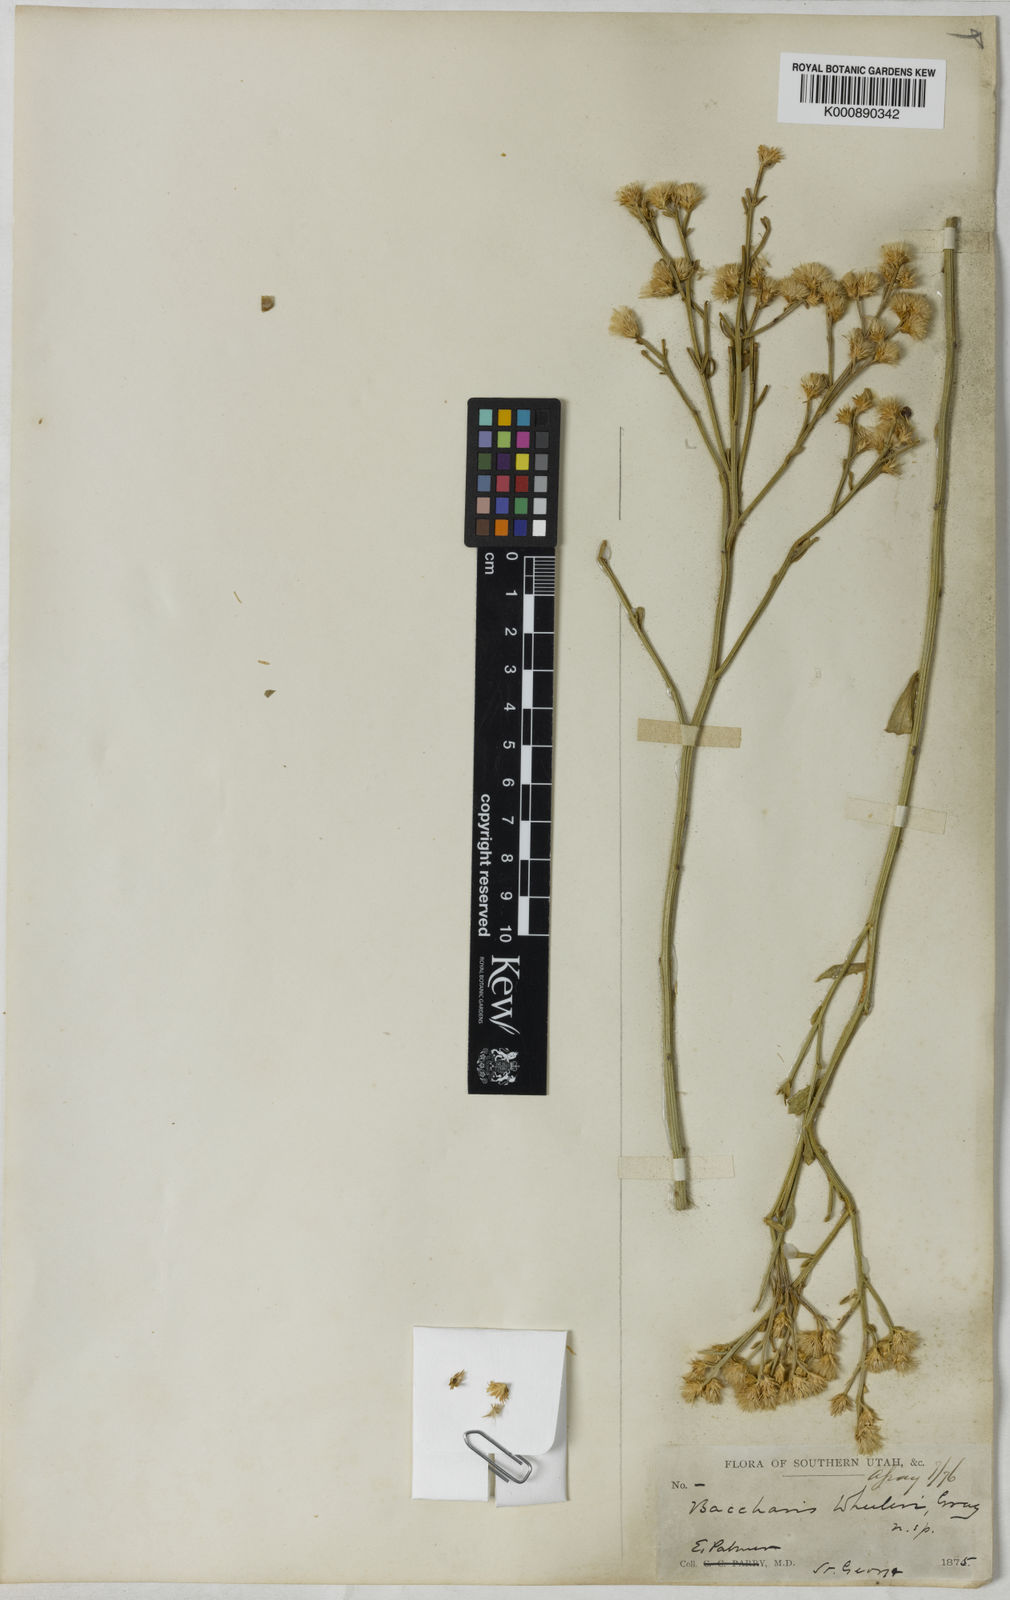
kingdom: Plantae
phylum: Tracheophyta
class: Magnoliopsida
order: Asterales
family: Asteraceae
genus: Baccharis
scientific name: Baccharis
